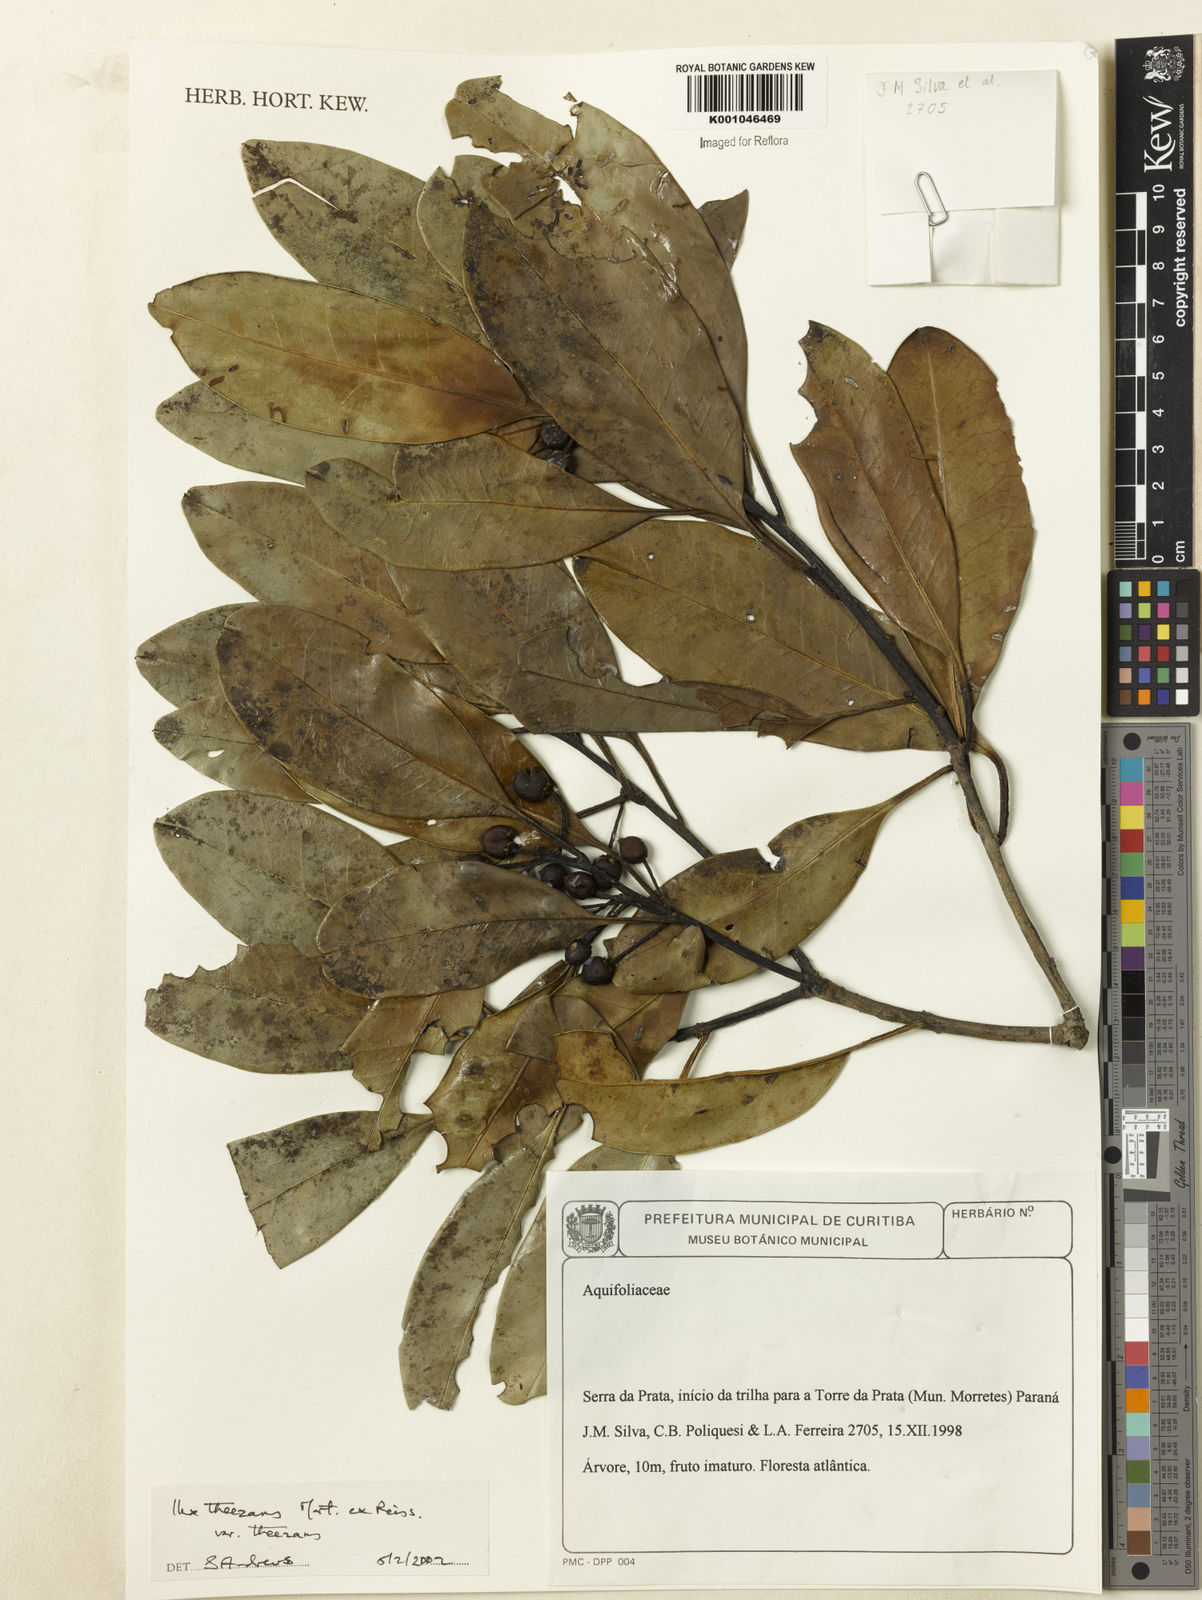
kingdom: Plantae
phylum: Tracheophyta
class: Magnoliopsida
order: Aquifoliales
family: Aquifoliaceae
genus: Ilex
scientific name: Ilex paraguariensis
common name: Paraguay tea
